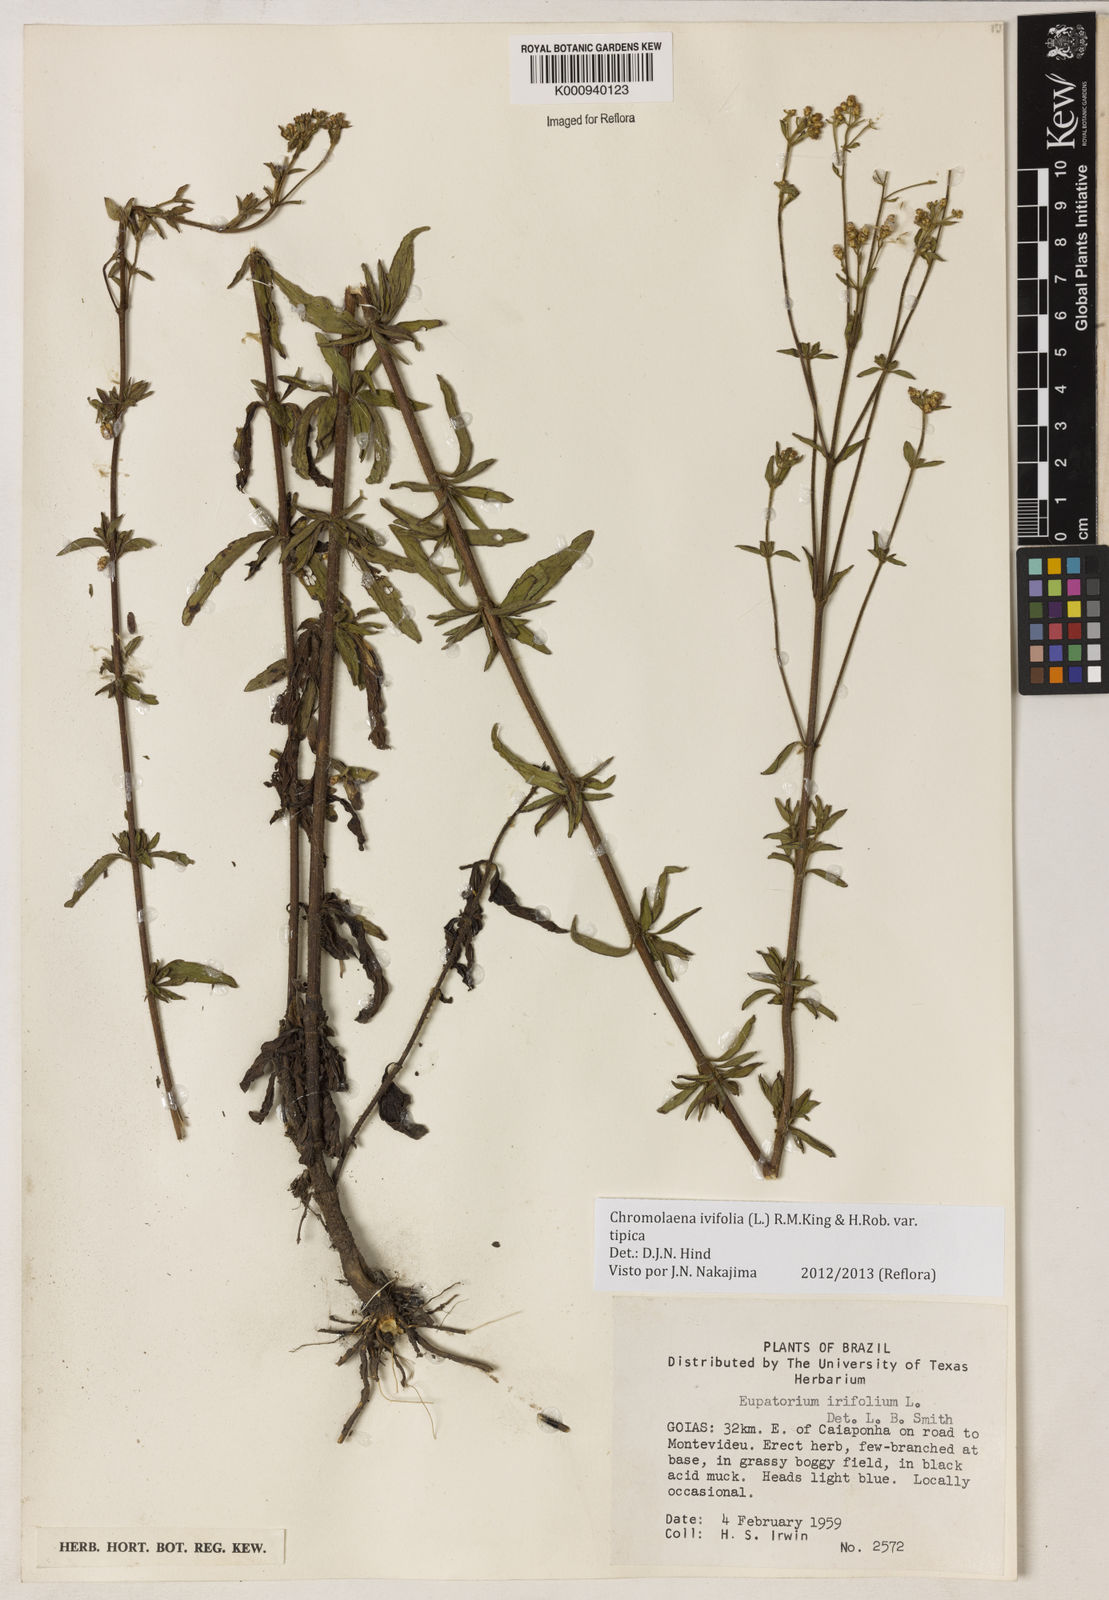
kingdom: Plantae
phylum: Tracheophyta
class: Magnoliopsida
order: Asterales
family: Asteraceae
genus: Chromolaena
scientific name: Chromolaena ivifolia
